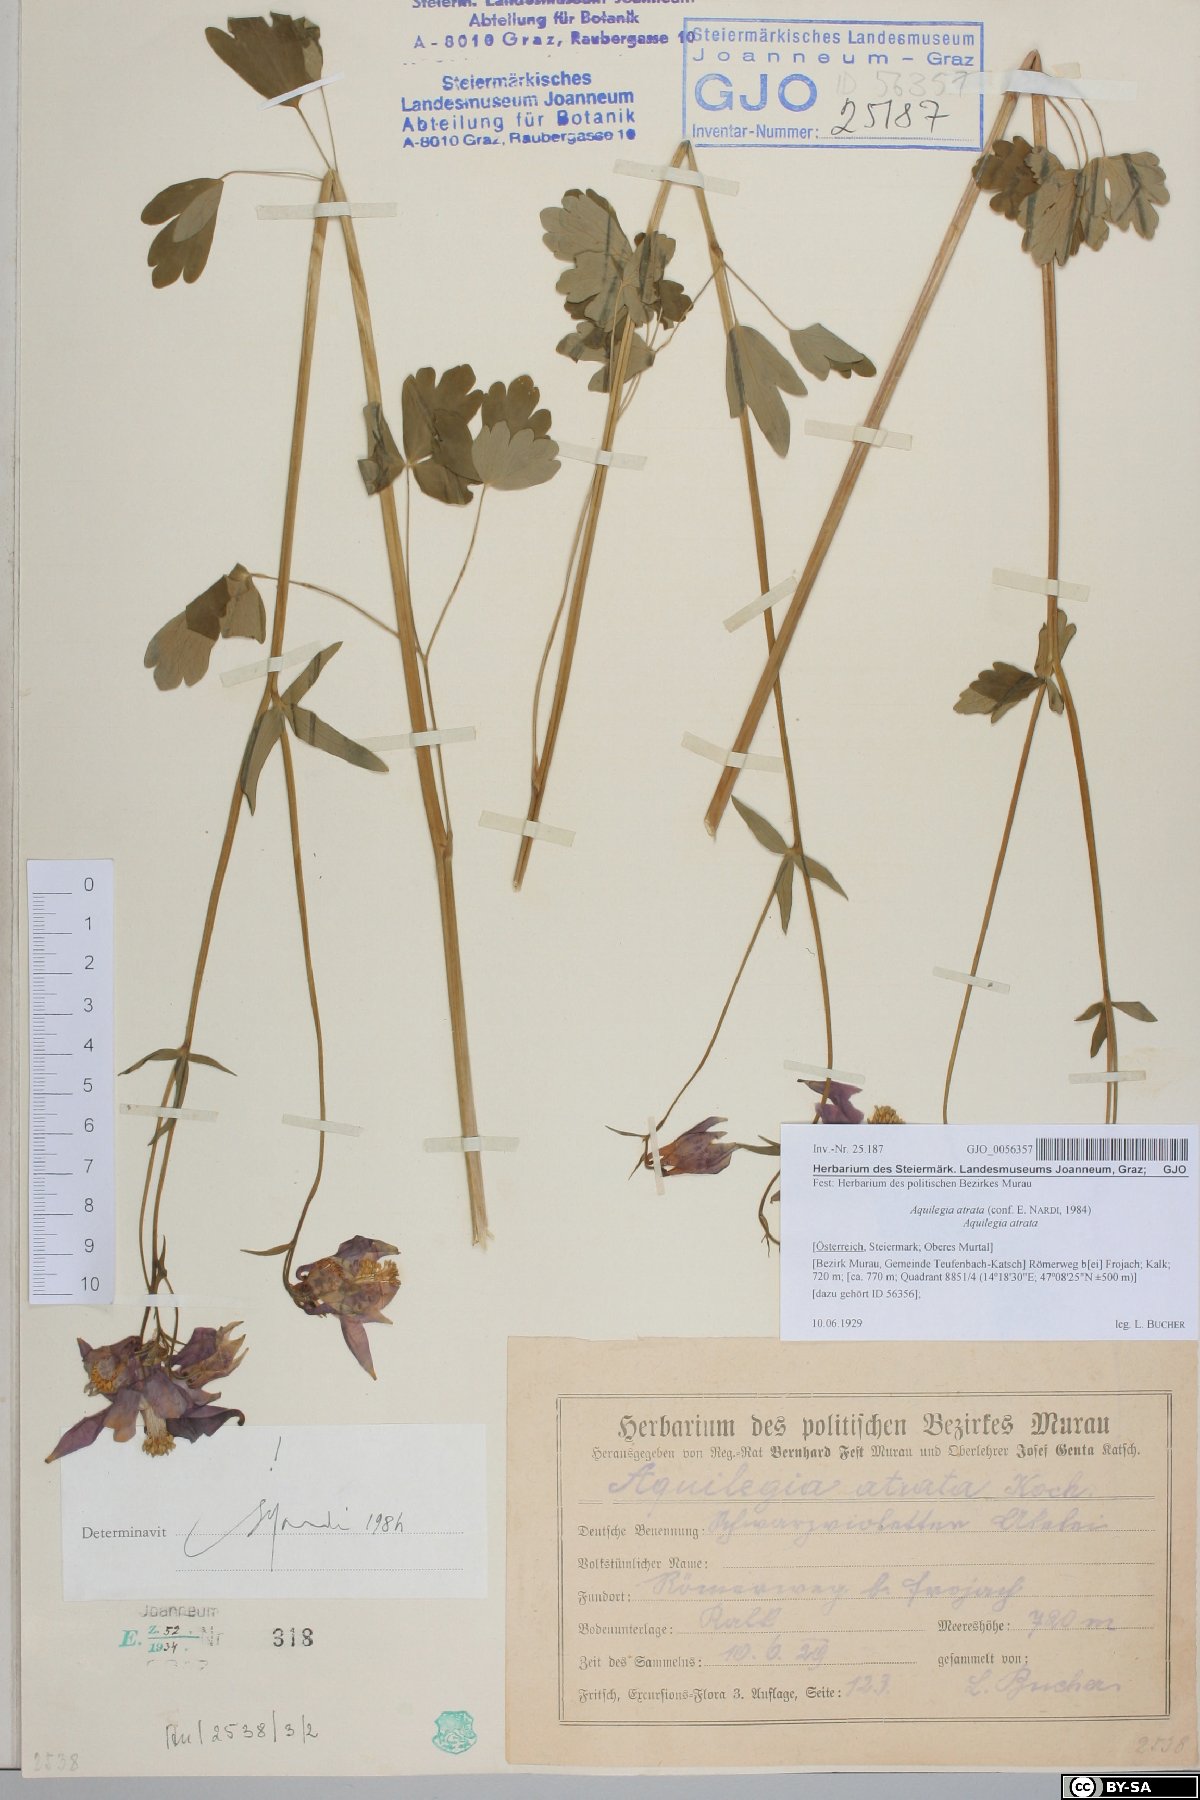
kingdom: Plantae
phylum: Tracheophyta
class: Magnoliopsida
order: Ranunculales
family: Ranunculaceae
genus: Aquilegia
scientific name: Aquilegia atrata
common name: Dark columbine
